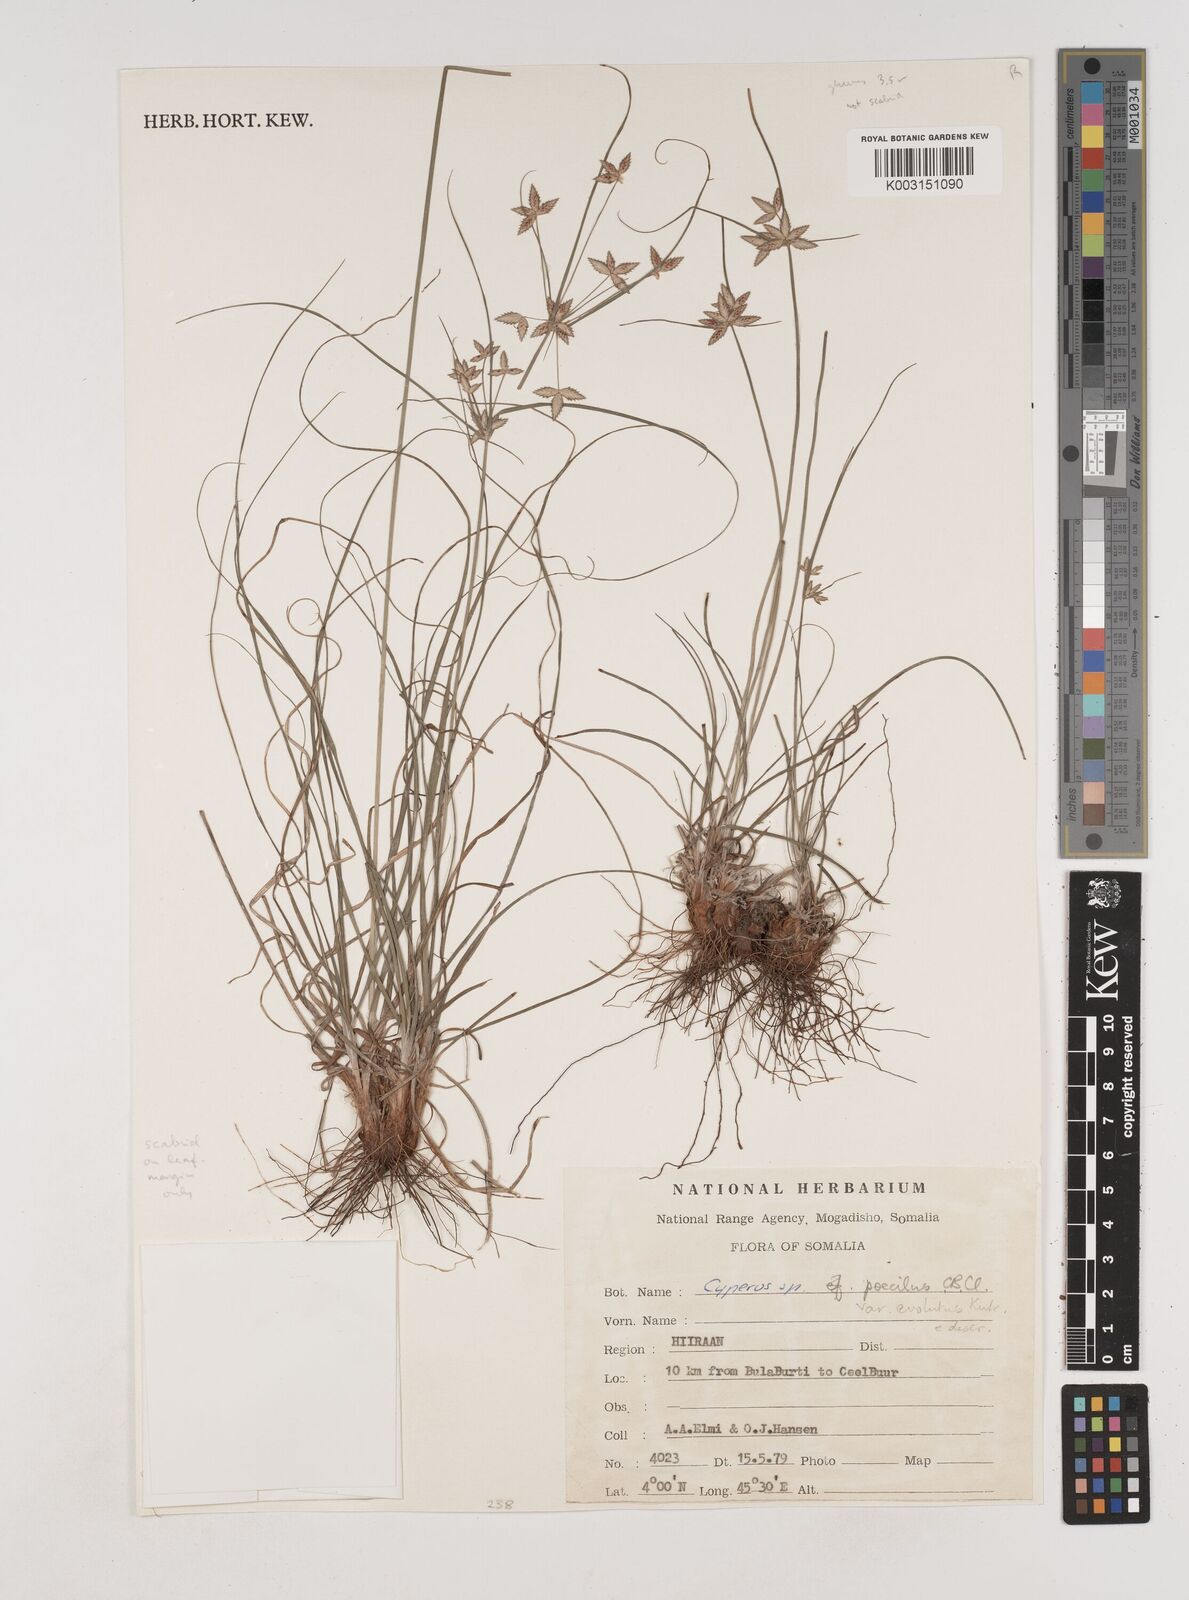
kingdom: Plantae
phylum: Tracheophyta
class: Liliopsida
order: Poales
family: Cyperaceae
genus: Cyperus
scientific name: Cyperus poecilus
